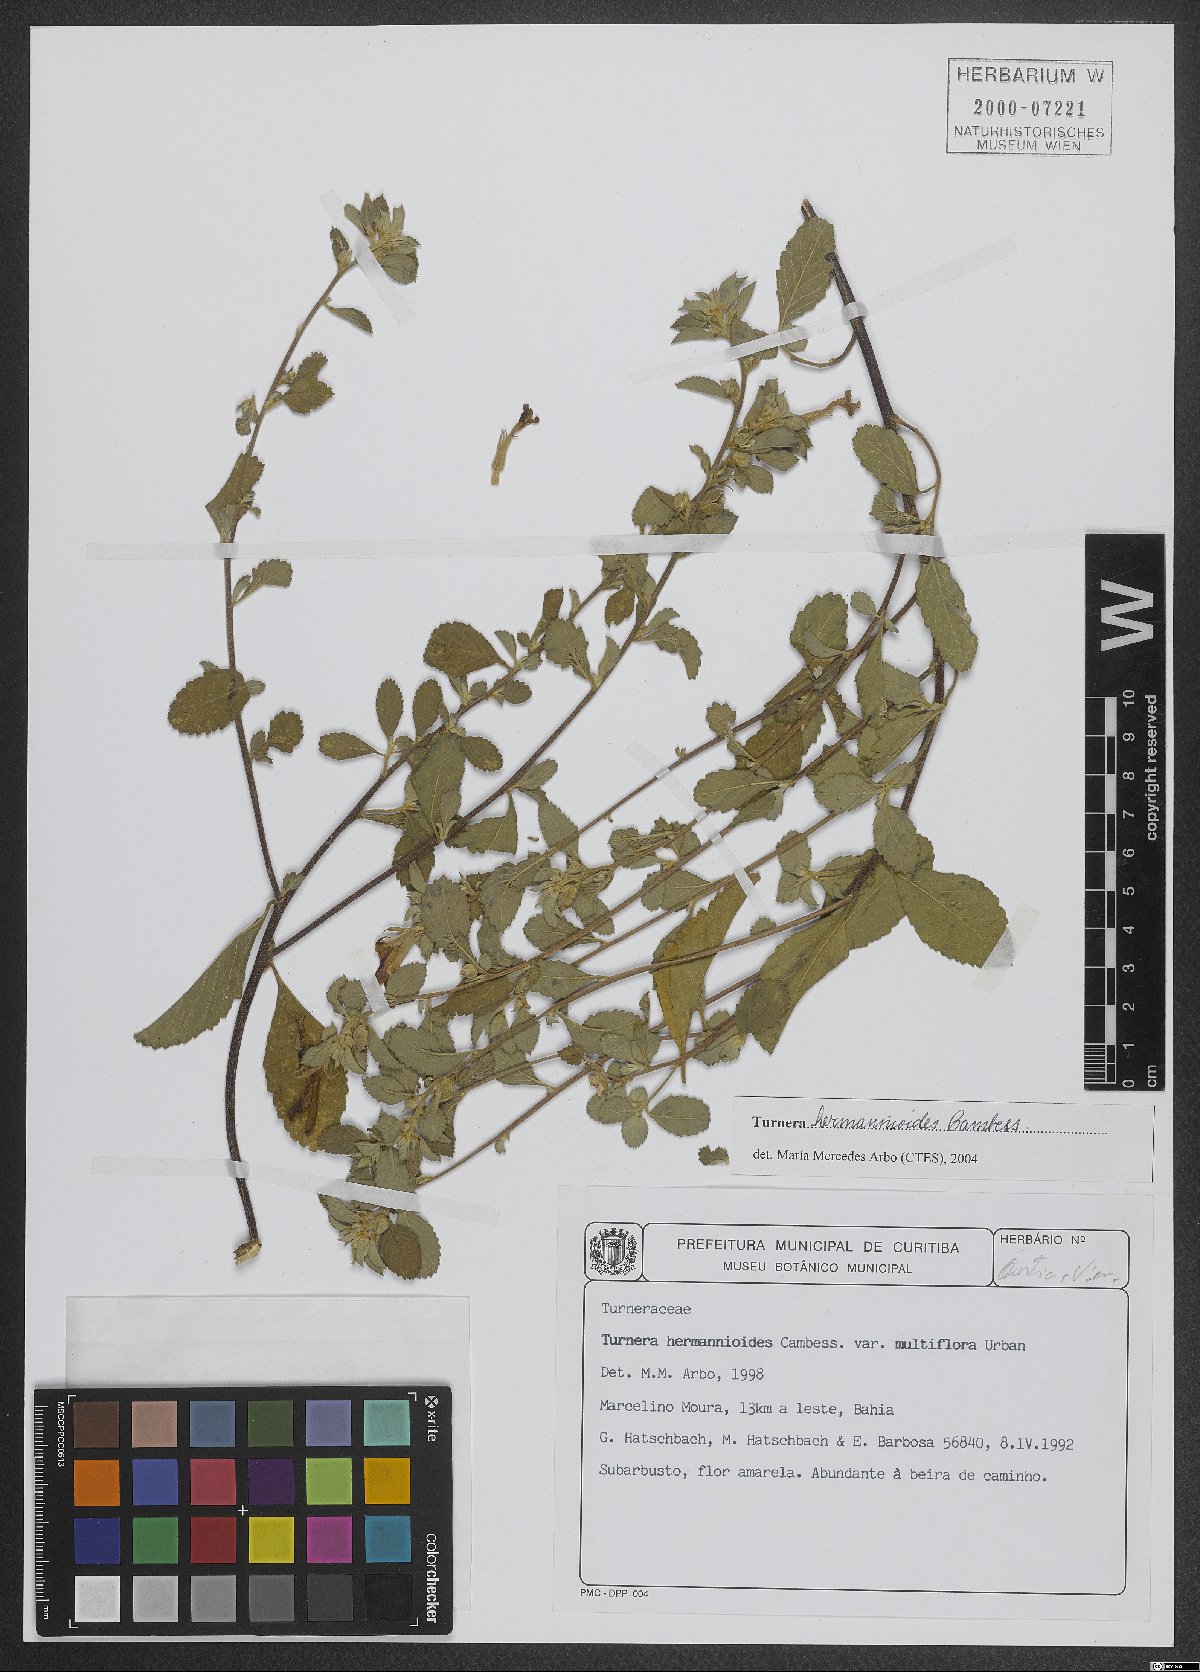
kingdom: Plantae
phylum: Tracheophyta
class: Magnoliopsida
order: Malpighiales
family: Turneraceae
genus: Turnera
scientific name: Turnera hermannioides
